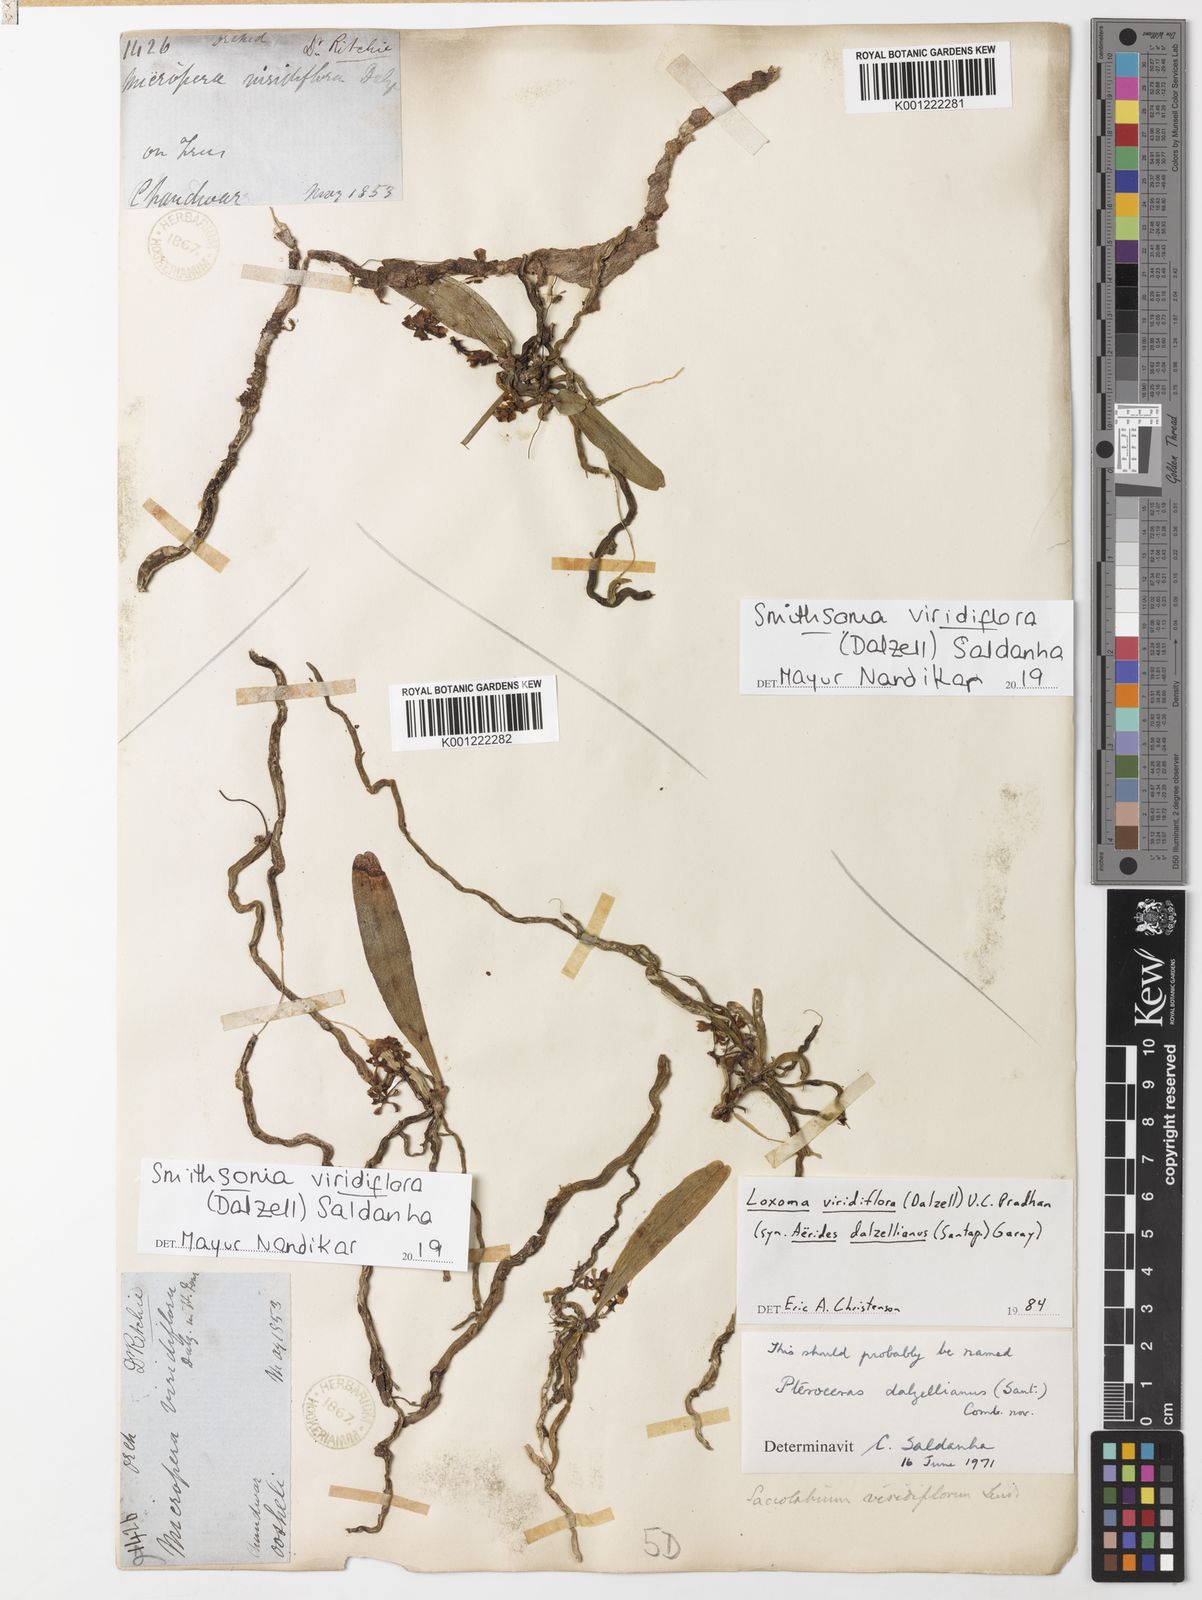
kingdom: Plantae
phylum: Tracheophyta
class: Liliopsida
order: Asparagales
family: Orchidaceae
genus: Smithsonia
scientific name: Smithsonia viridiflora
